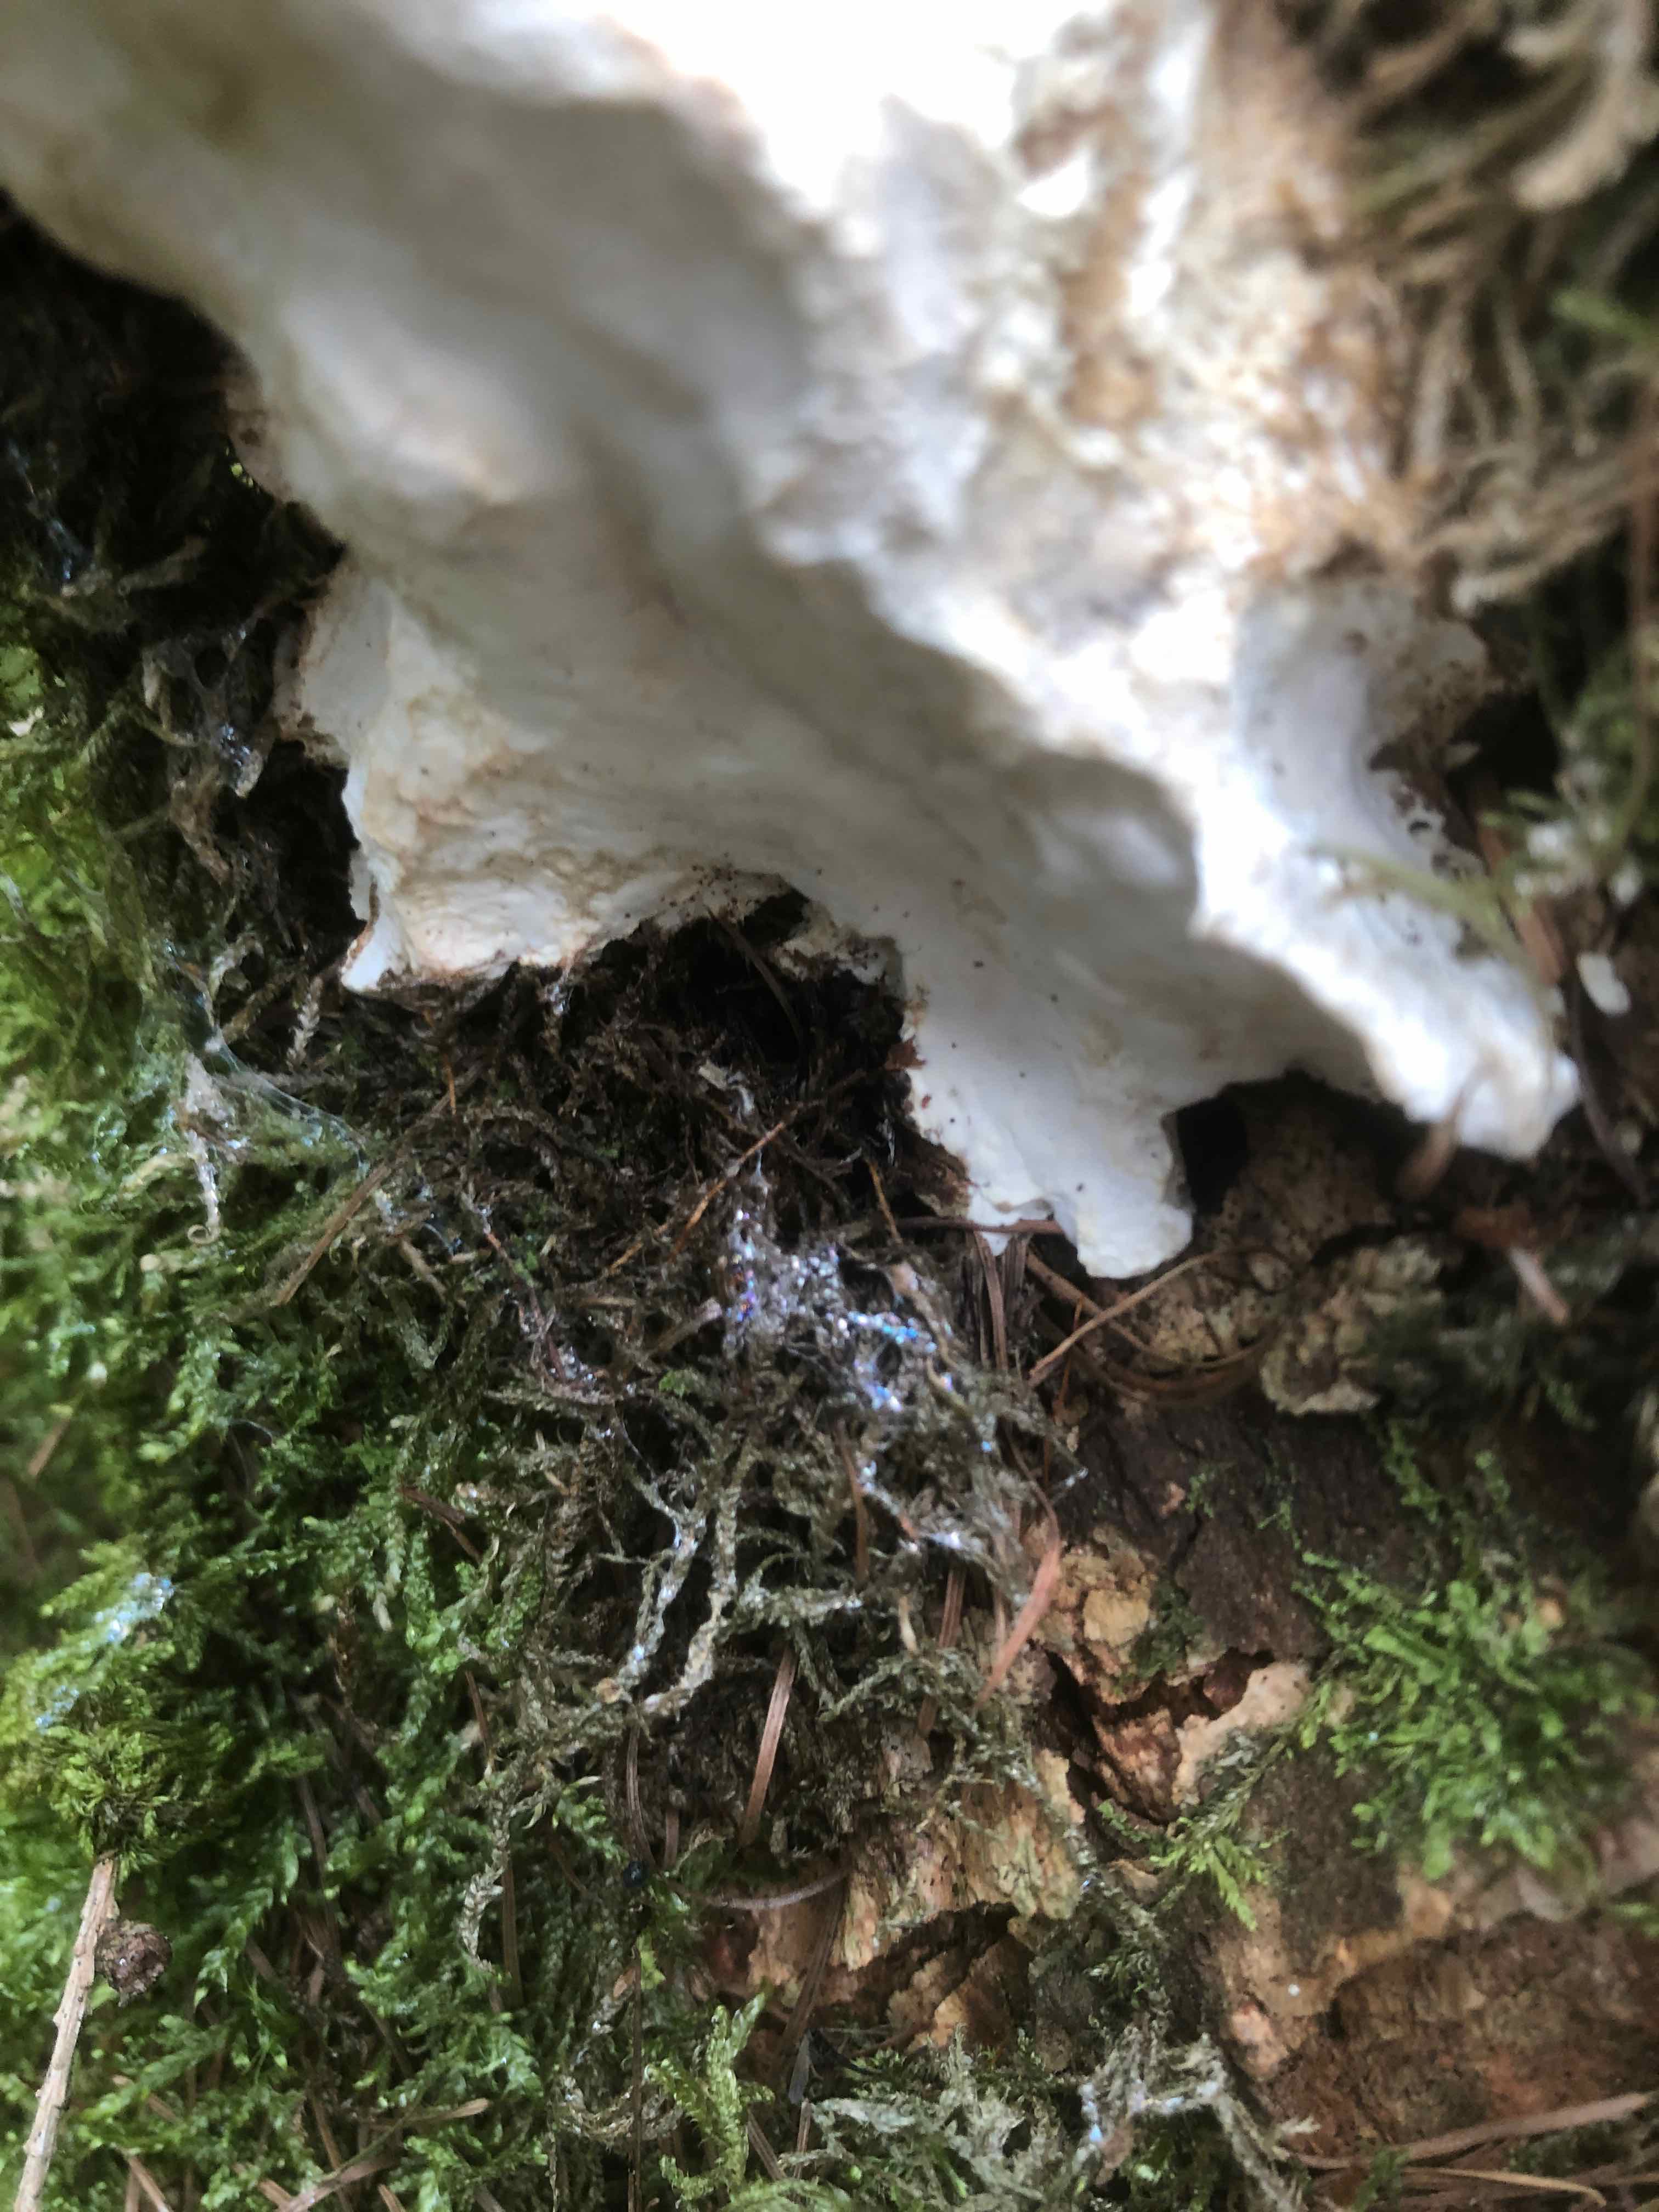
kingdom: Fungi
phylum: Basidiomycota
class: Agaricomycetes
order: Polyporales
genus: Calcipostia
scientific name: Calcipostia guttulata
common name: dråbe-kødporesvamp
